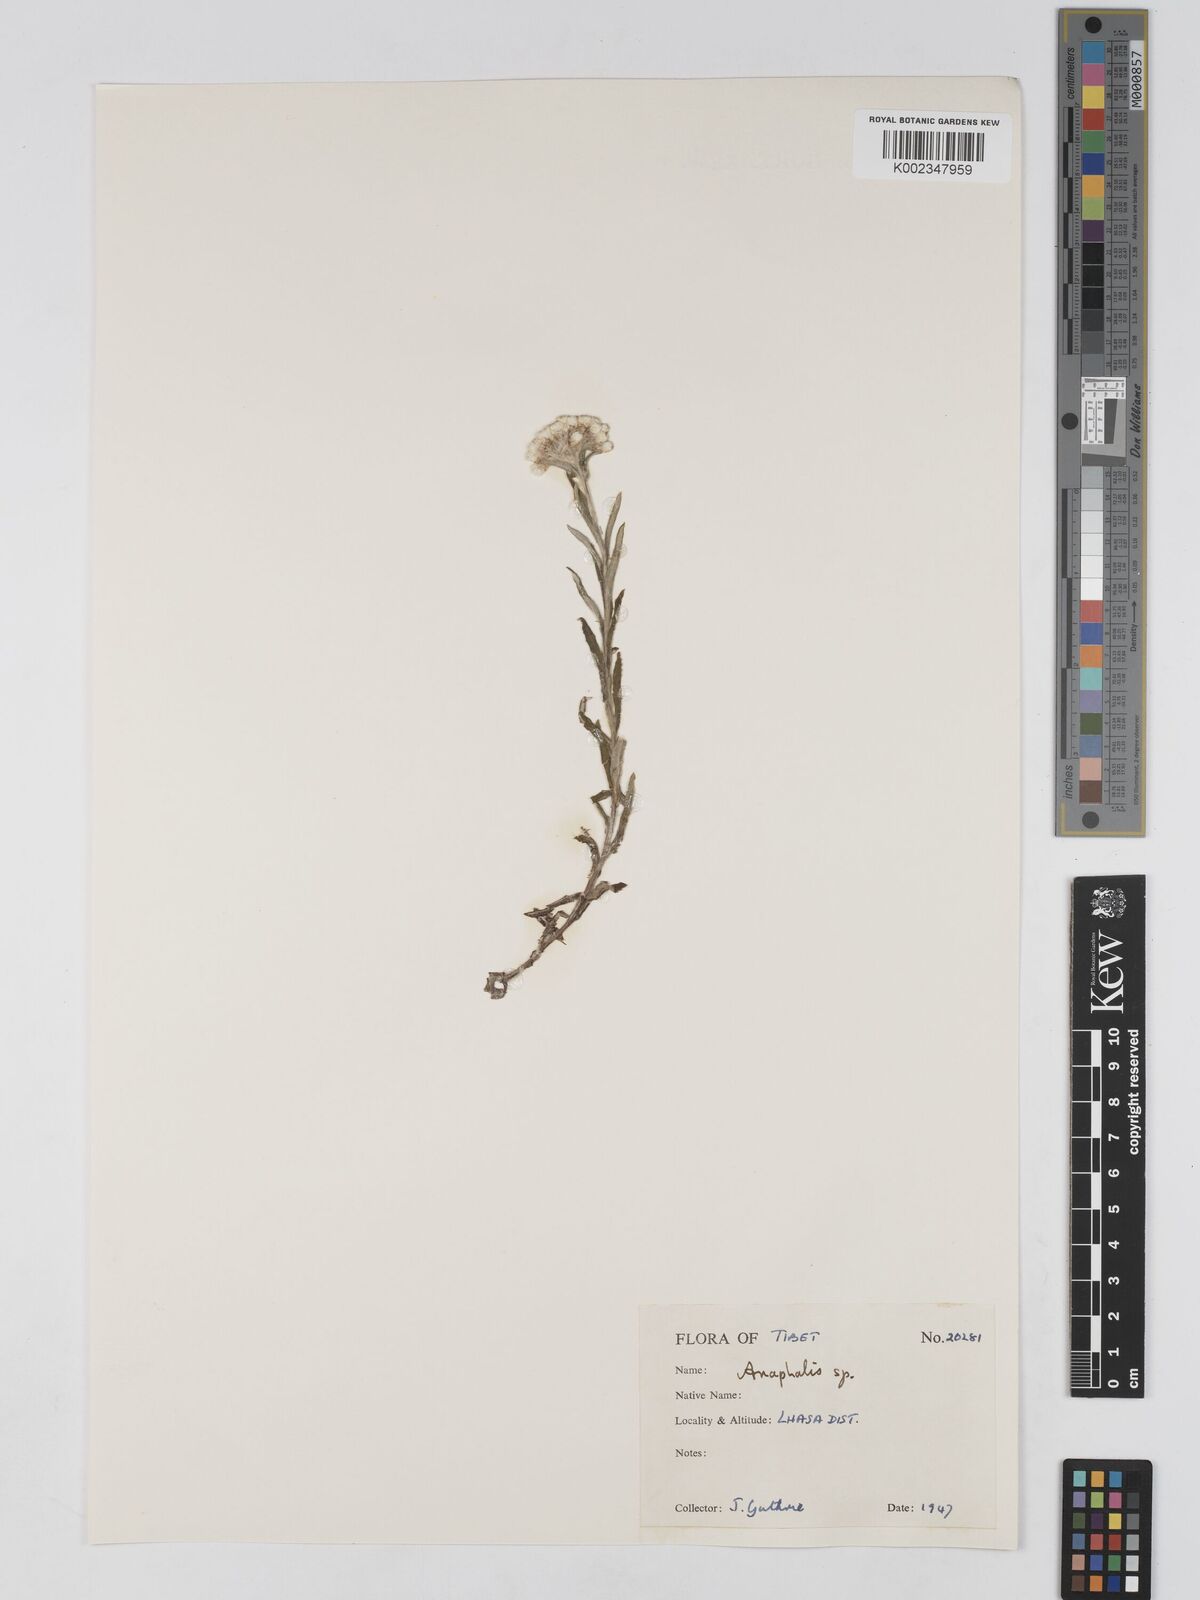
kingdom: Plantae
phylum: Tracheophyta
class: Magnoliopsida
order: Asterales
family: Asteraceae
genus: Anaphalis
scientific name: Anaphalis
